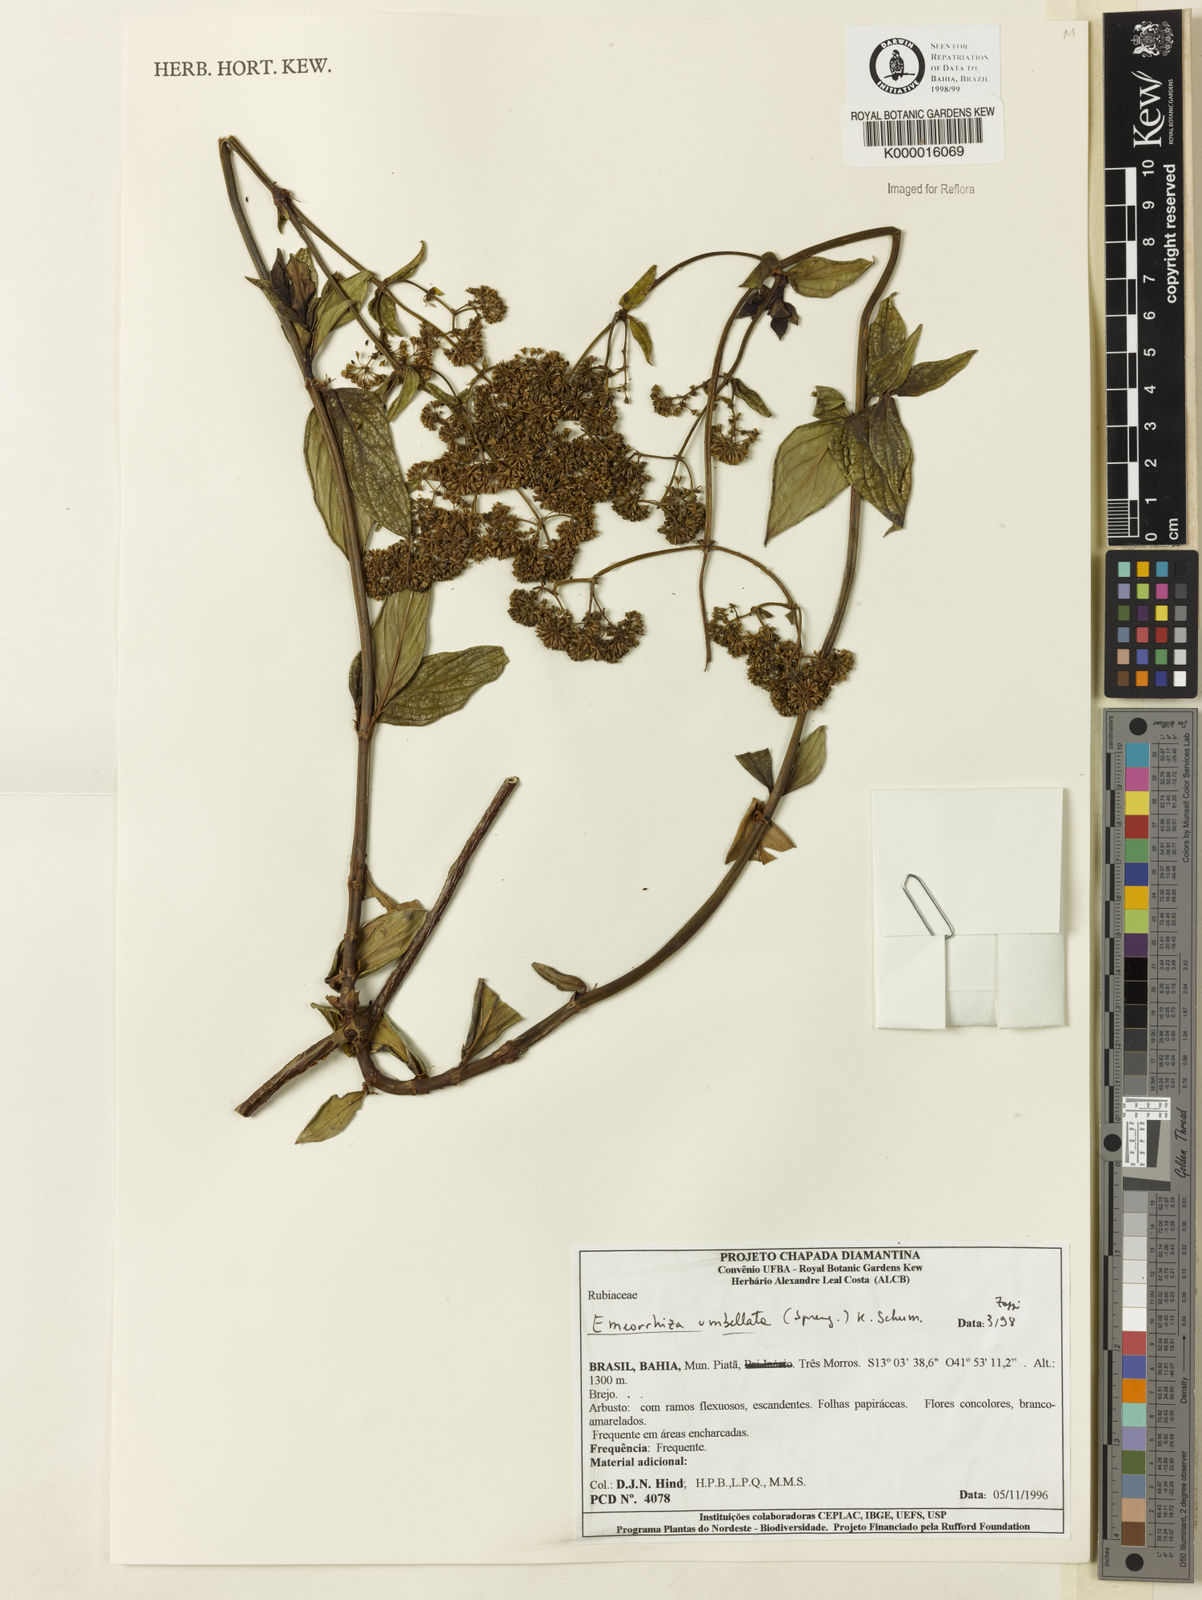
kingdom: Plantae
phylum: Tracheophyta
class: Magnoliopsida
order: Gentianales
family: Rubiaceae
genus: Emmeorhiza
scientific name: Emmeorhiza umbellata
